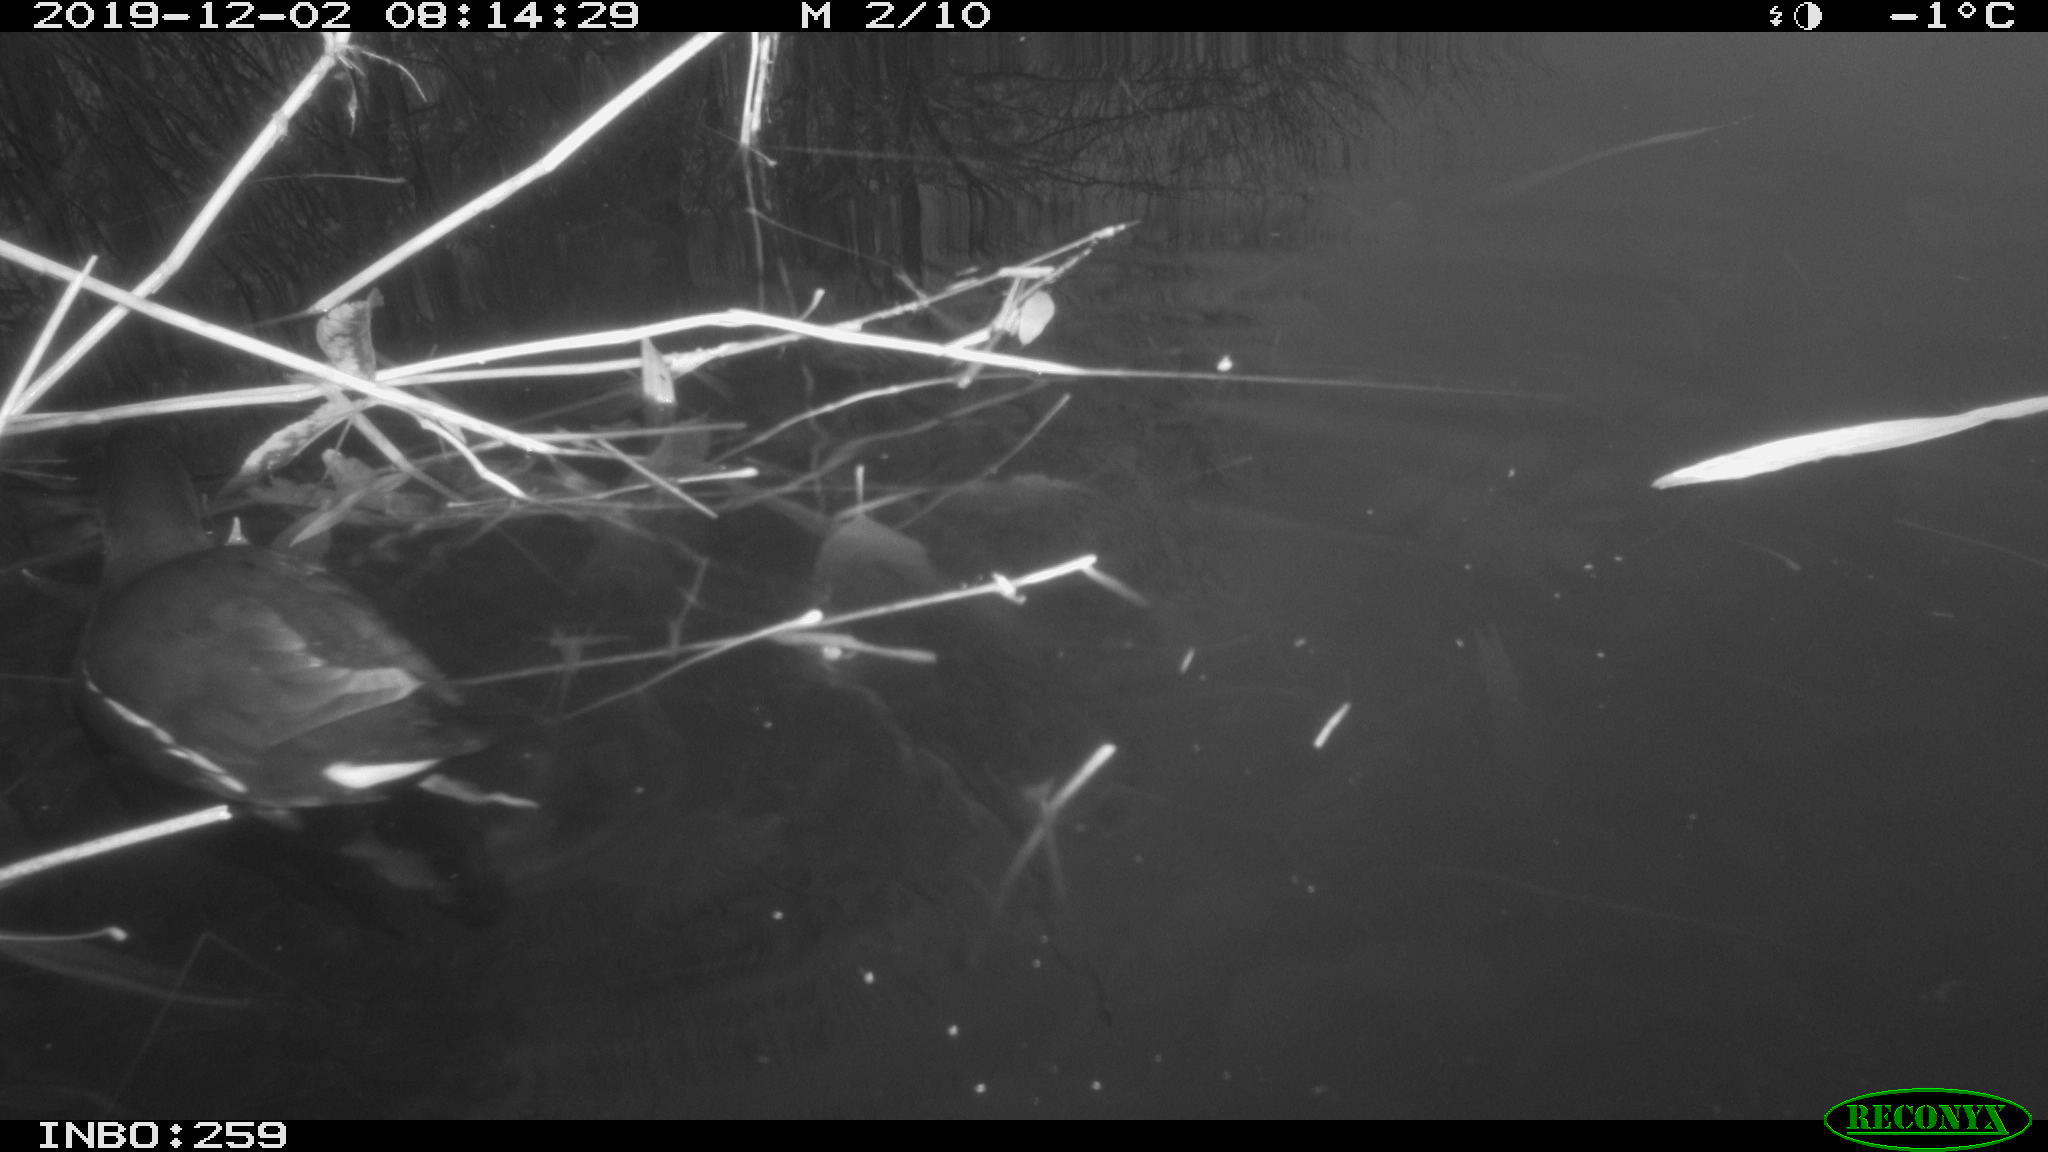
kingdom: Animalia
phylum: Chordata
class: Aves
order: Gruiformes
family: Rallidae
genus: Gallinula
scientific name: Gallinula chloropus
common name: Common moorhen
